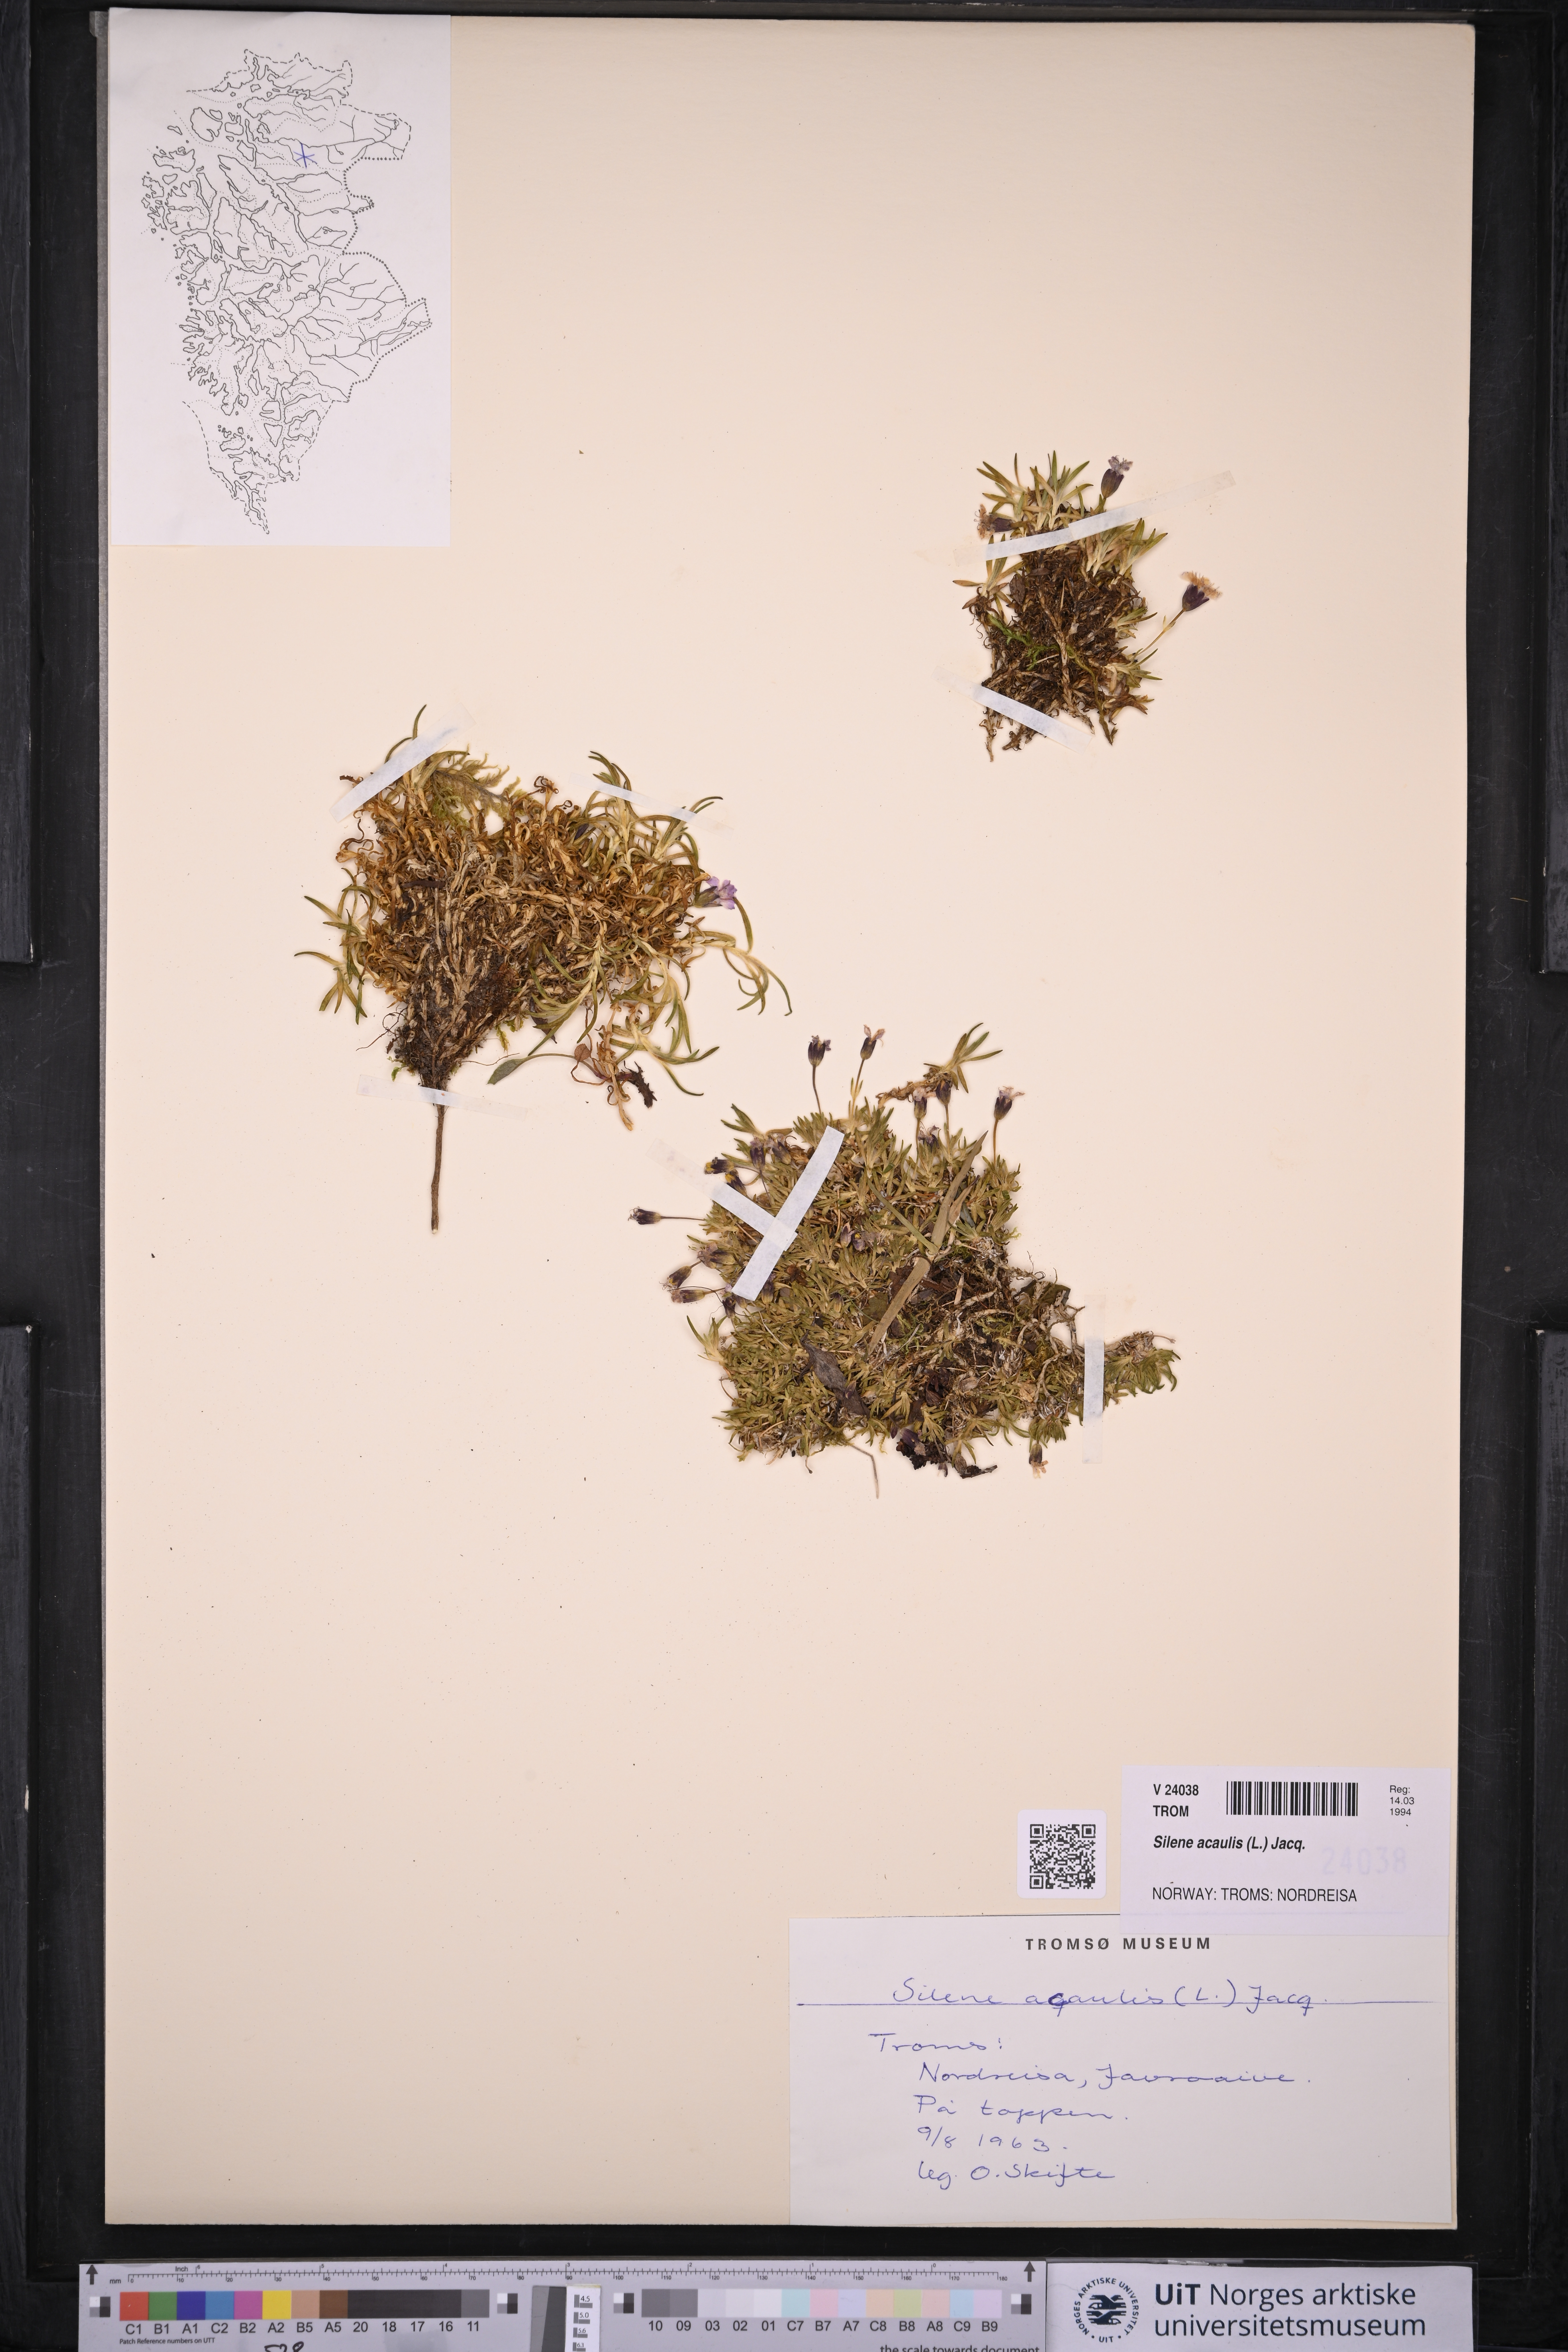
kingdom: Plantae
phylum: Tracheophyta
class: Magnoliopsida
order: Caryophyllales
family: Caryophyllaceae
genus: Silene
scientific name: Silene acaulis
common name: Moss campion
